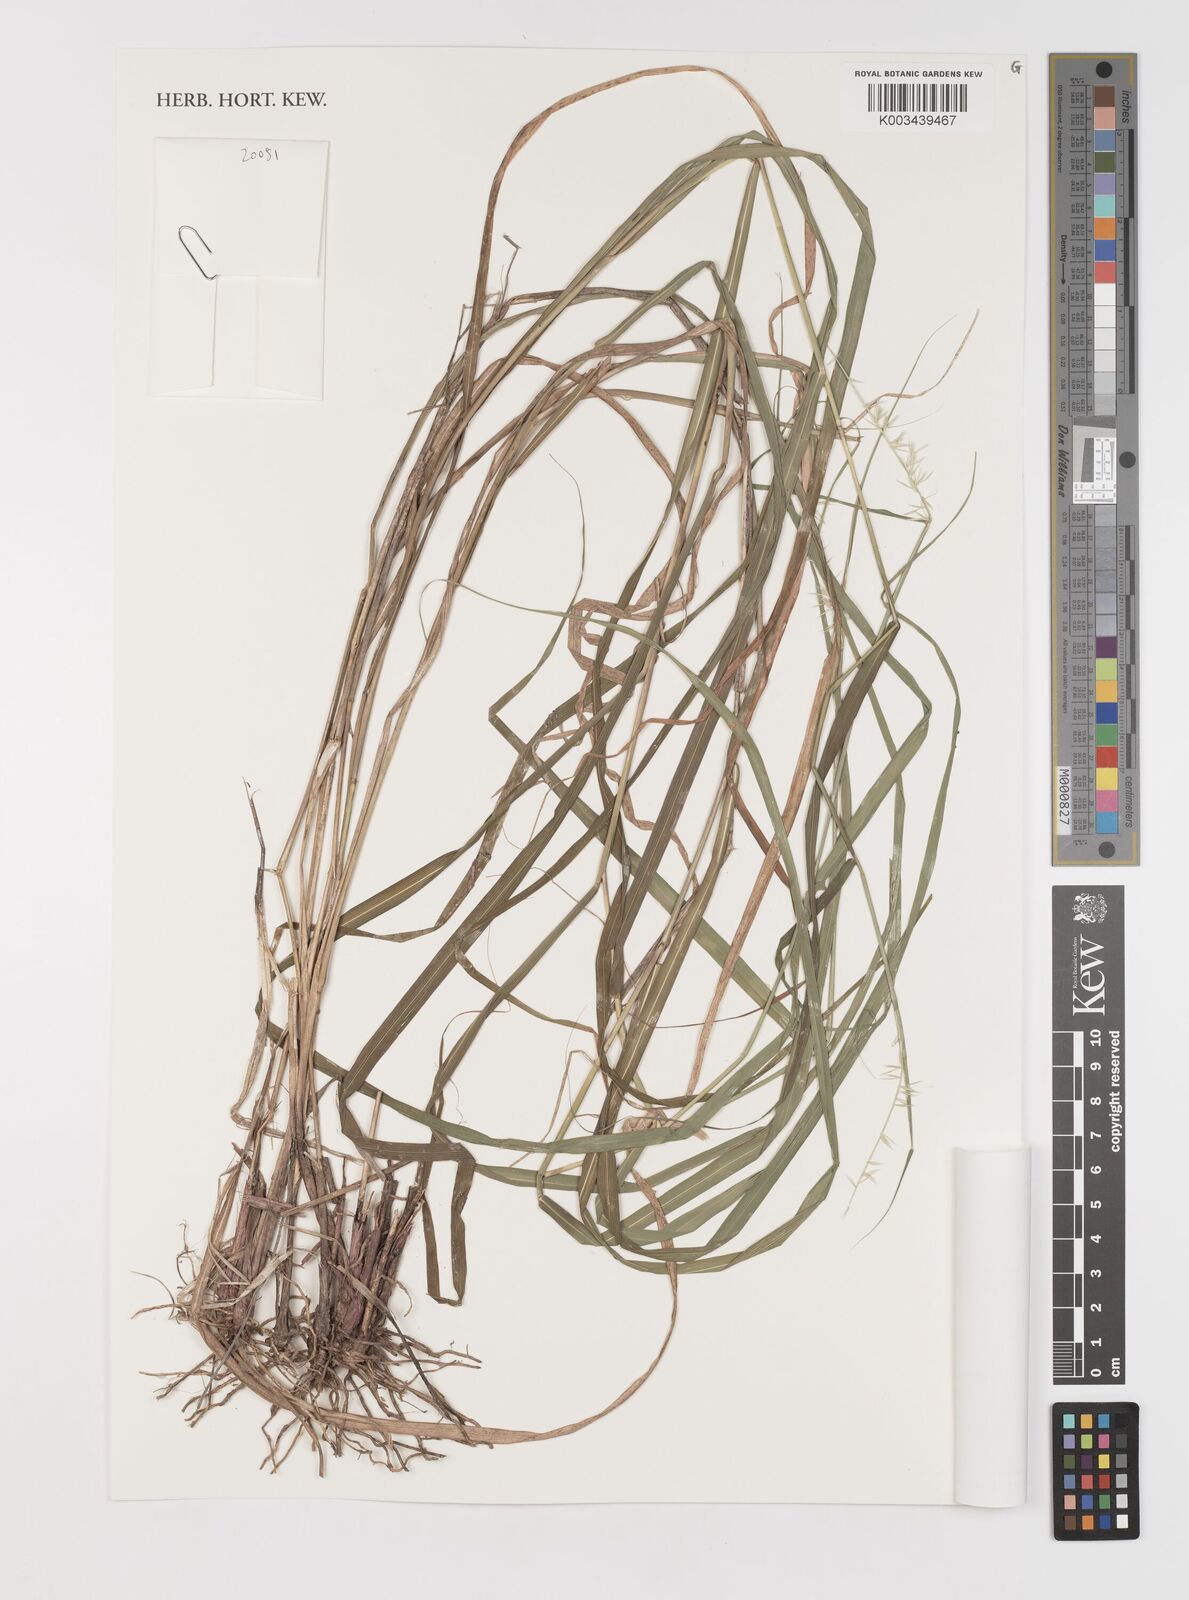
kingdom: Plantae
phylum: Tracheophyta
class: Liliopsida
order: Poales
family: Poaceae
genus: Bouteloua
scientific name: Bouteloua
